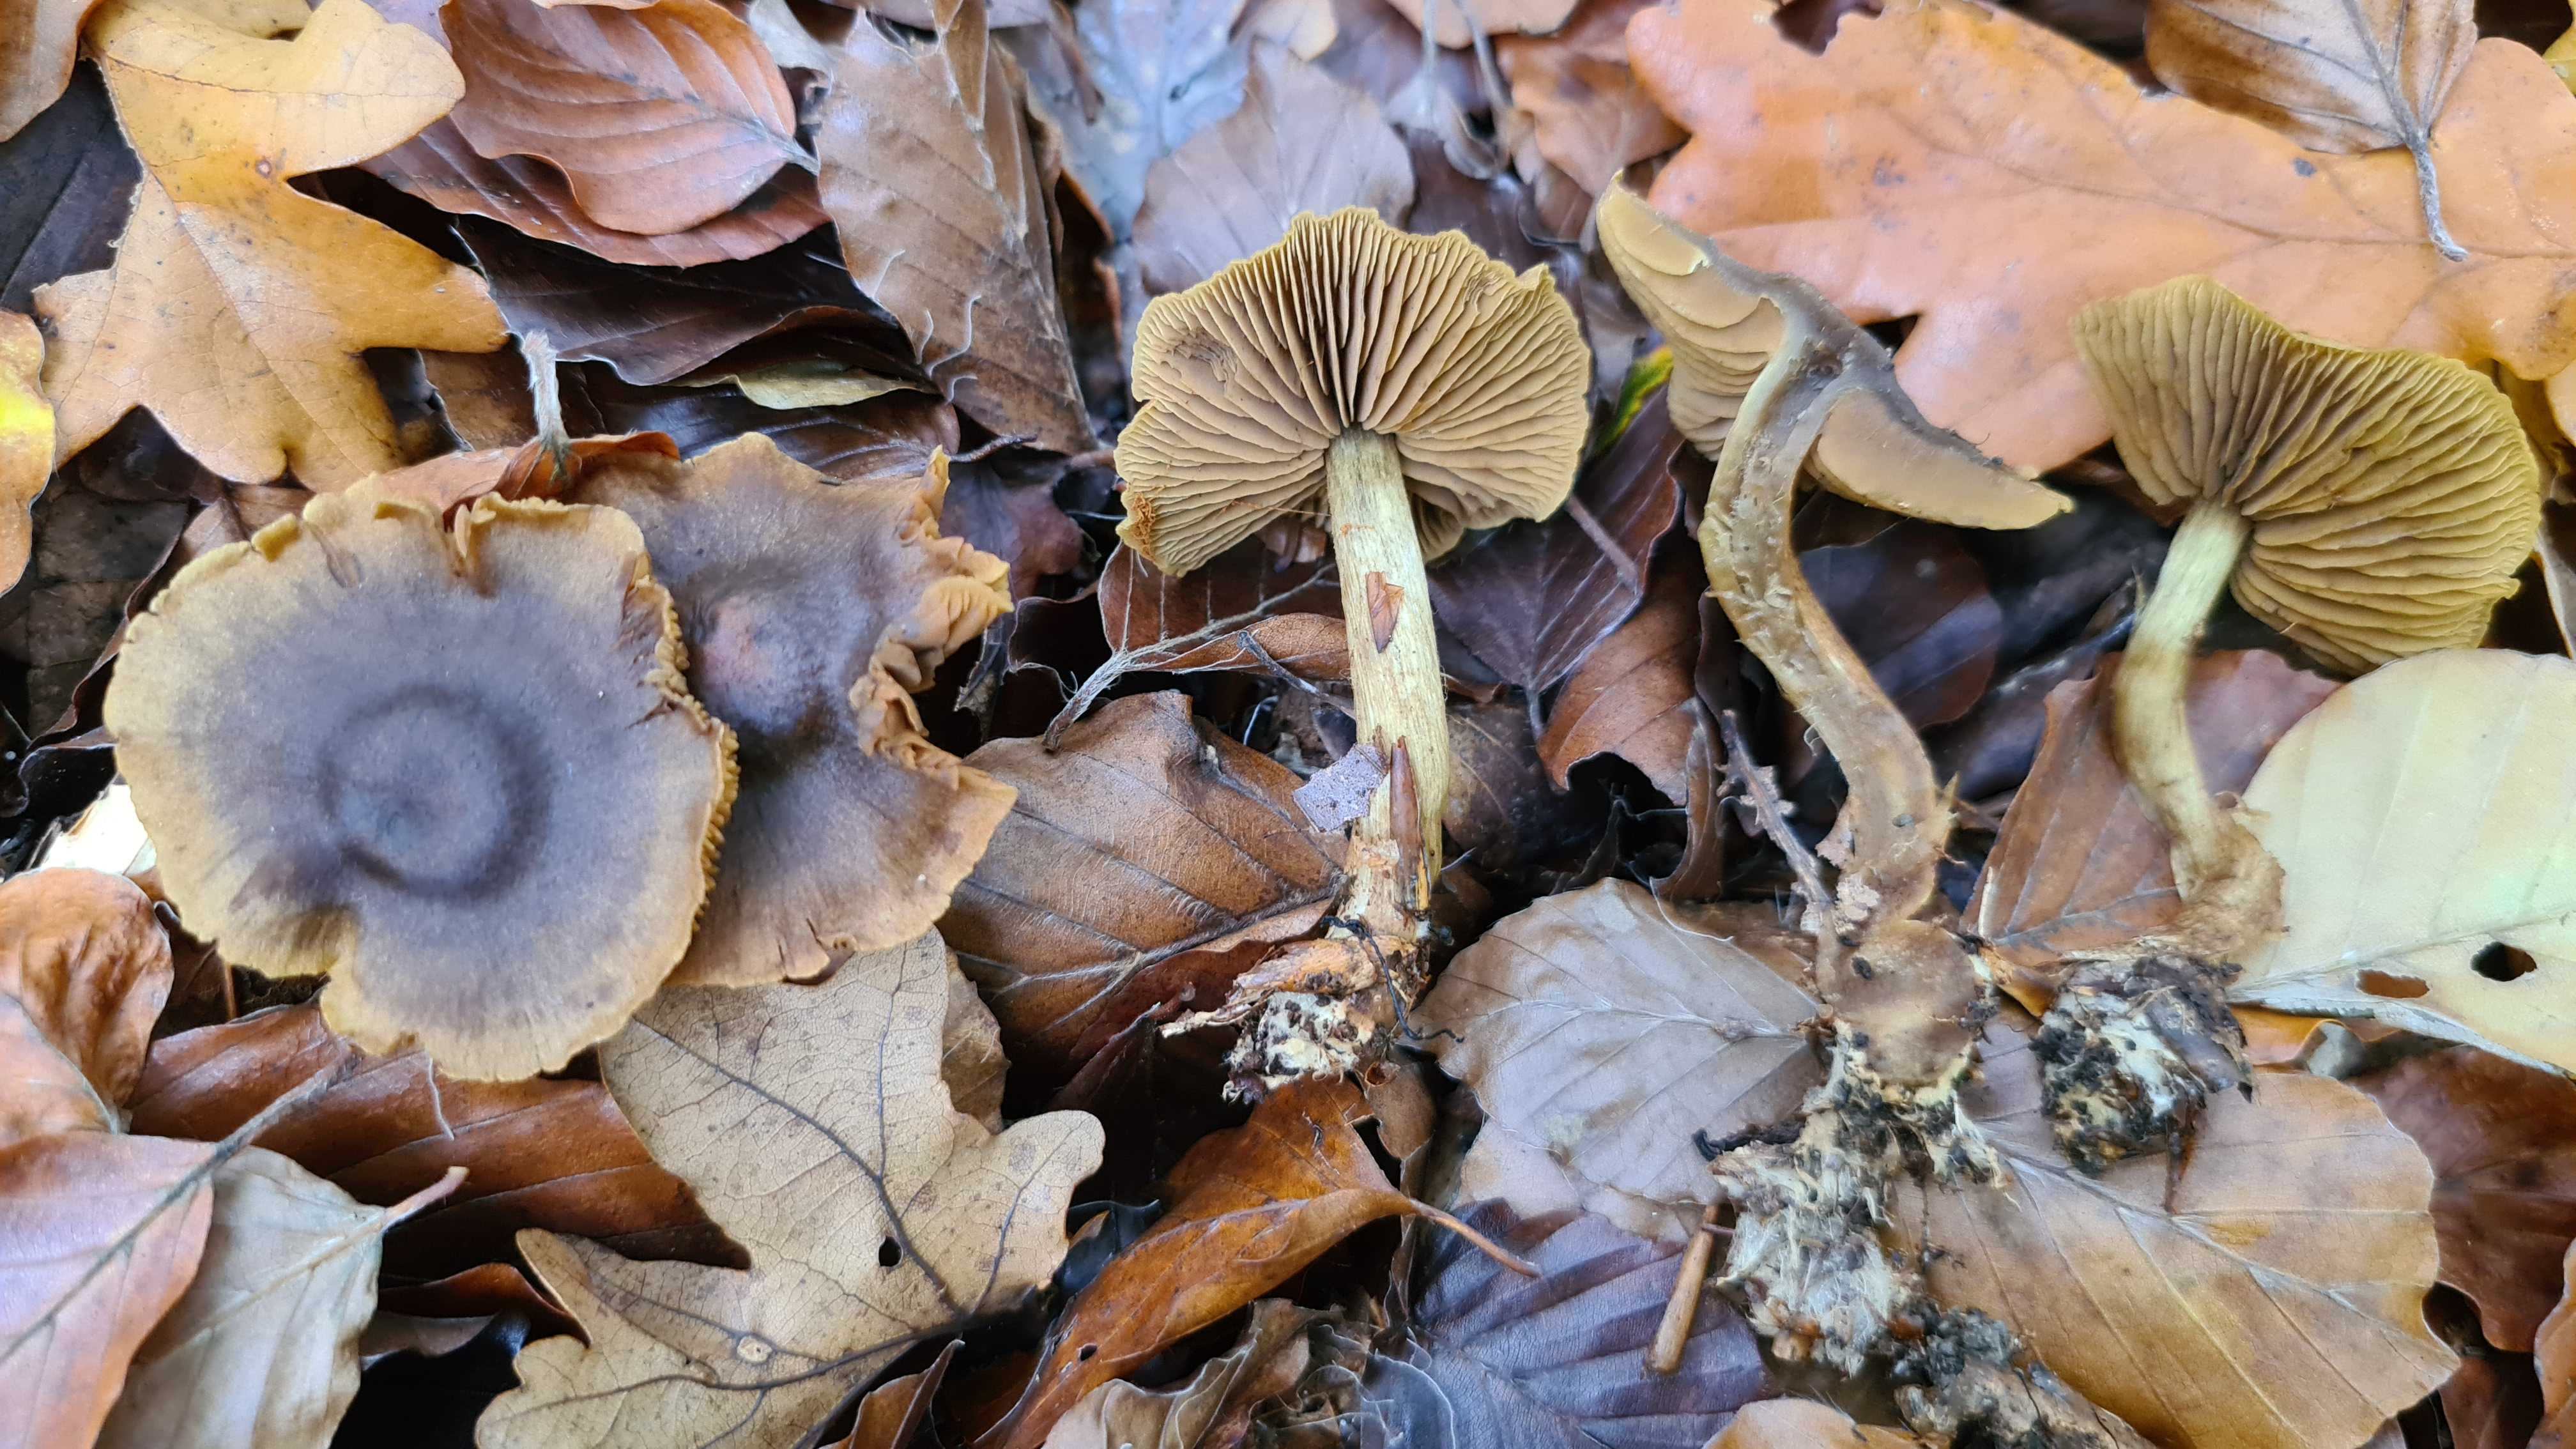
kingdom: Fungi
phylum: Basidiomycota
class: Agaricomycetes
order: Agaricales
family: Cortinariaceae
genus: Cortinarius
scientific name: Cortinarius olivaceofuscus
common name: olivenbrun slørhat
